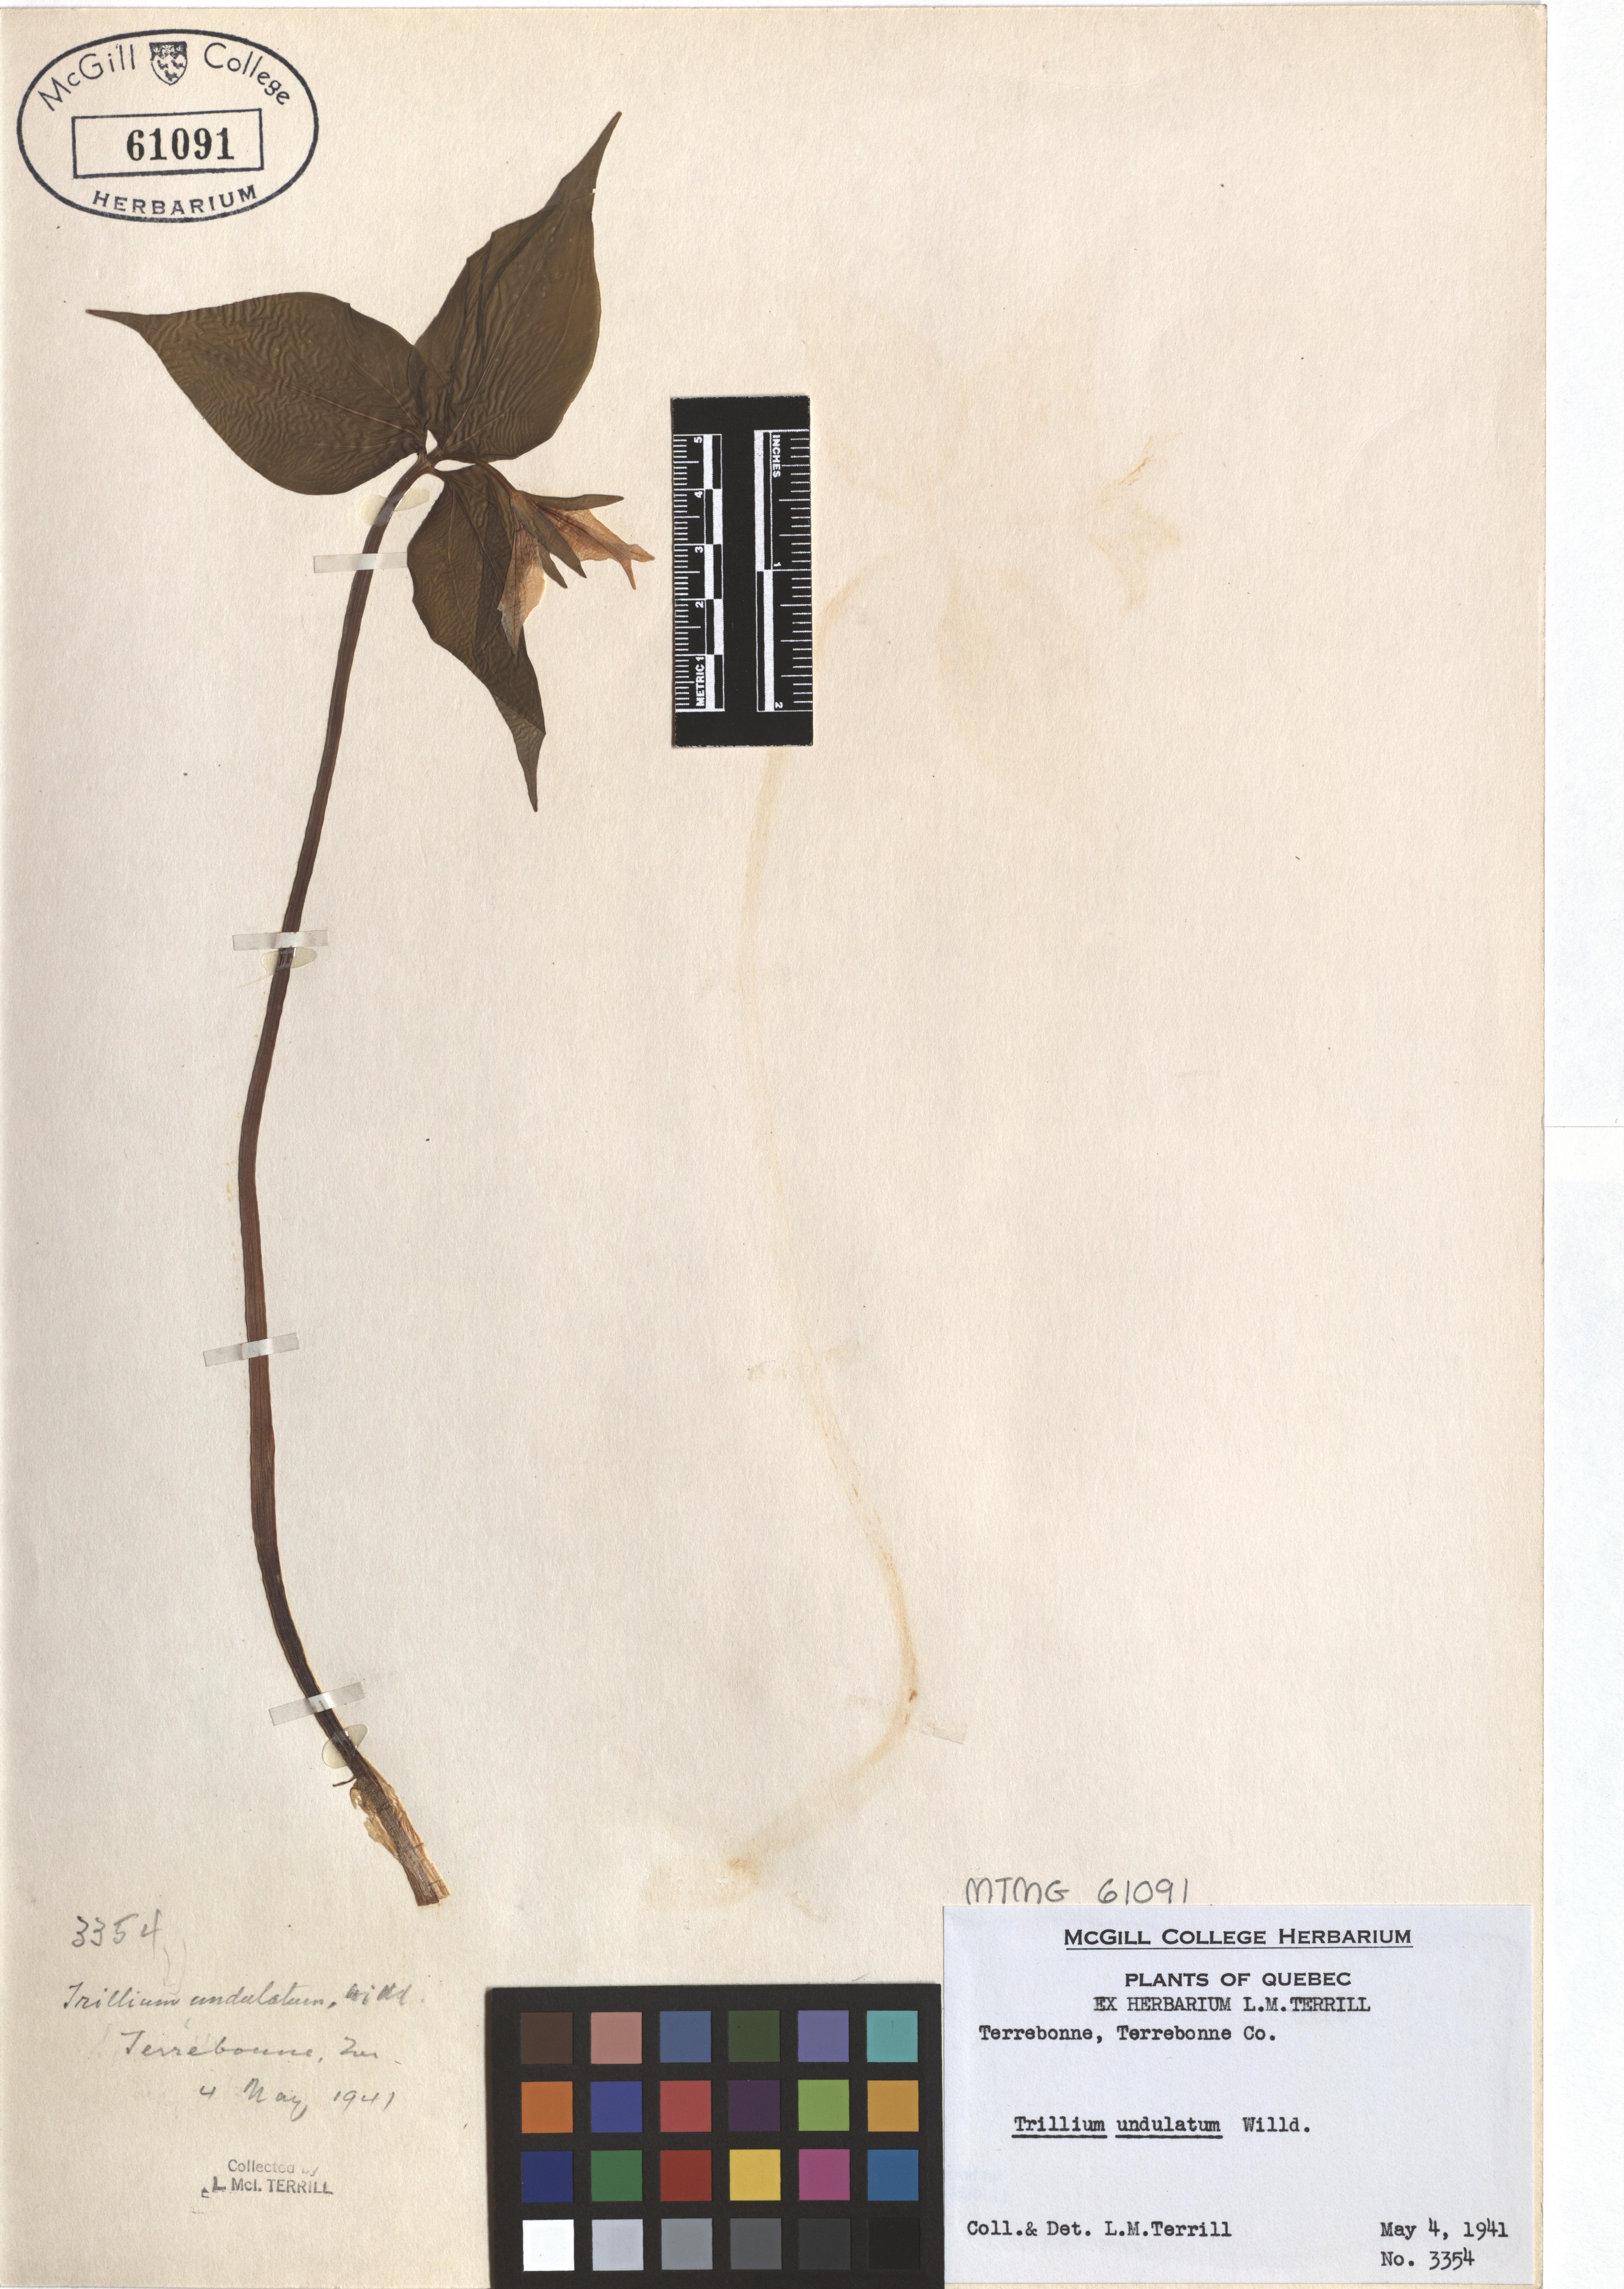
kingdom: Plantae
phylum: Tracheophyta
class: Liliopsida
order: Liliales
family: Melanthiaceae
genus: Trillium
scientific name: Trillium undulatum
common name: Paint trillium
